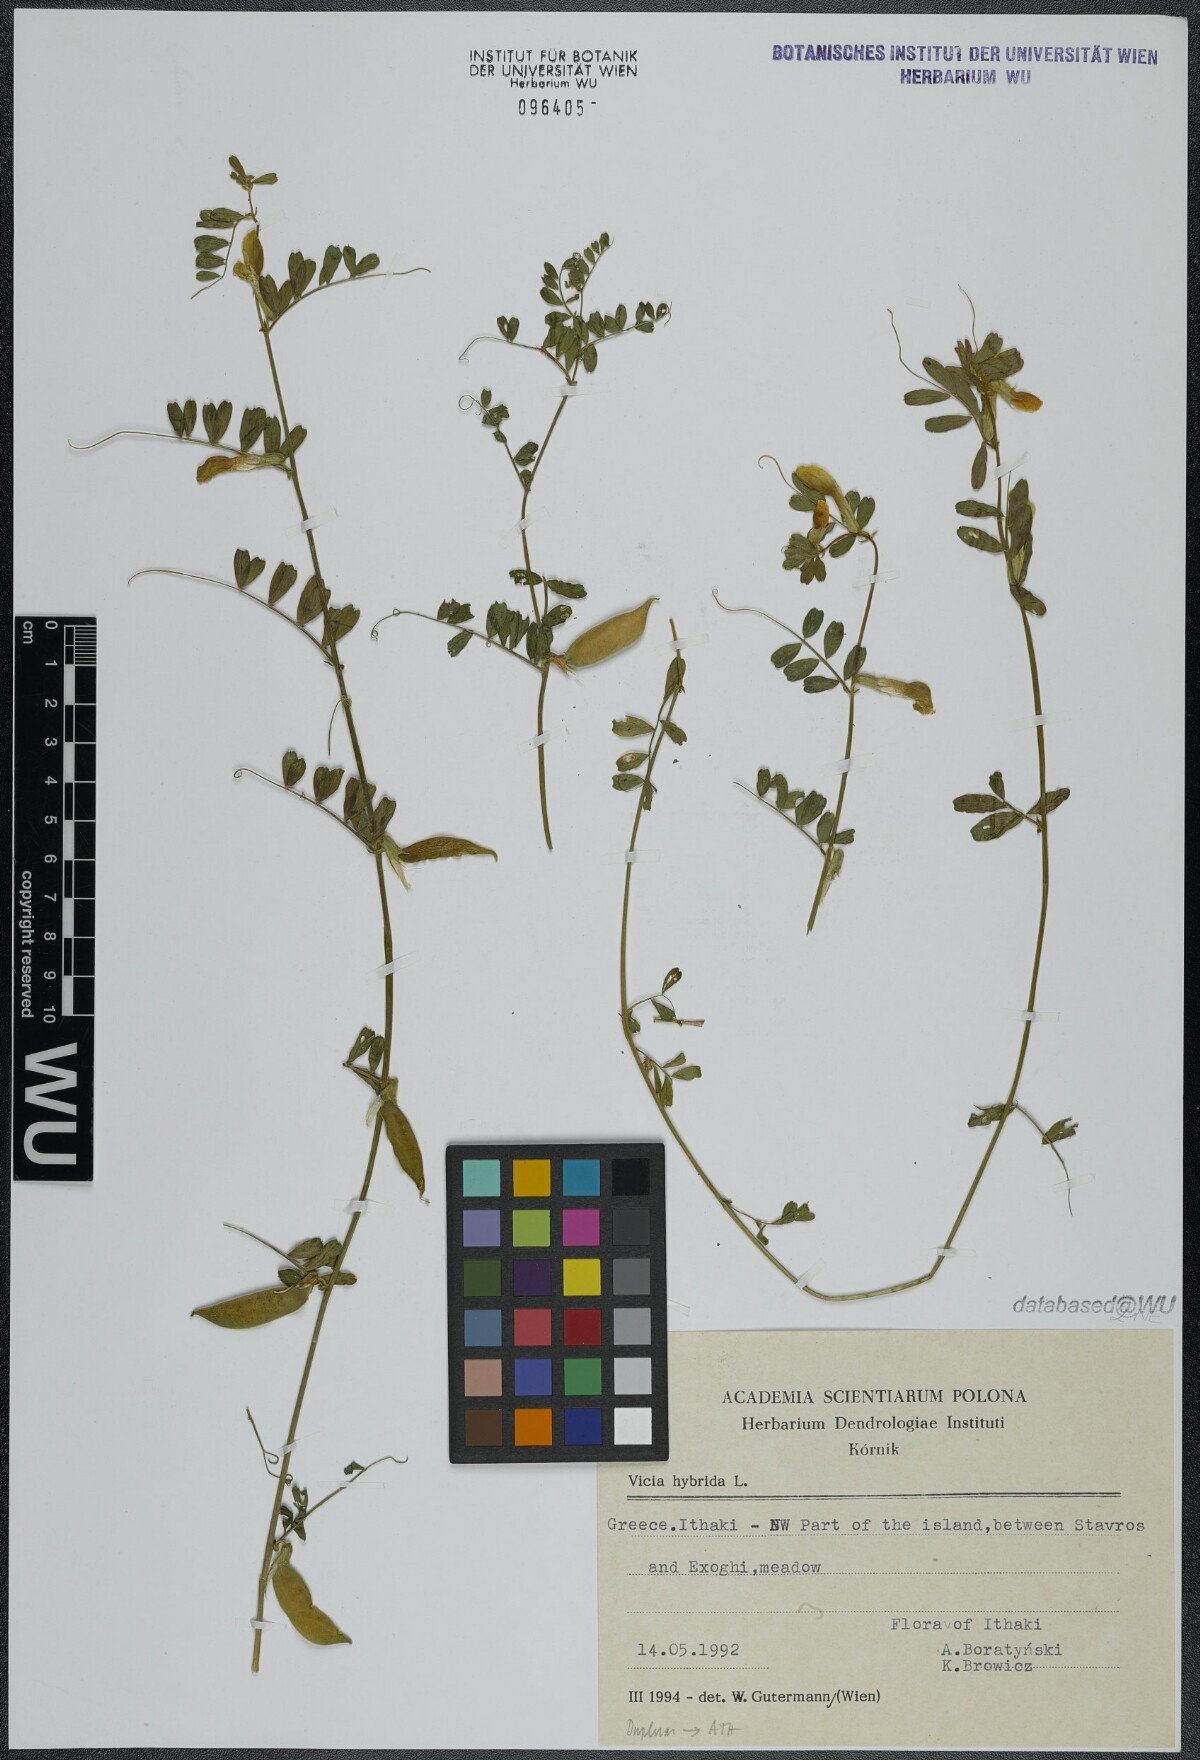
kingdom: Plantae
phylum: Tracheophyta
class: Magnoliopsida
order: Fabales
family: Fabaceae
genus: Vicia
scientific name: Vicia hybrida
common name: Hairy yellow vetch
